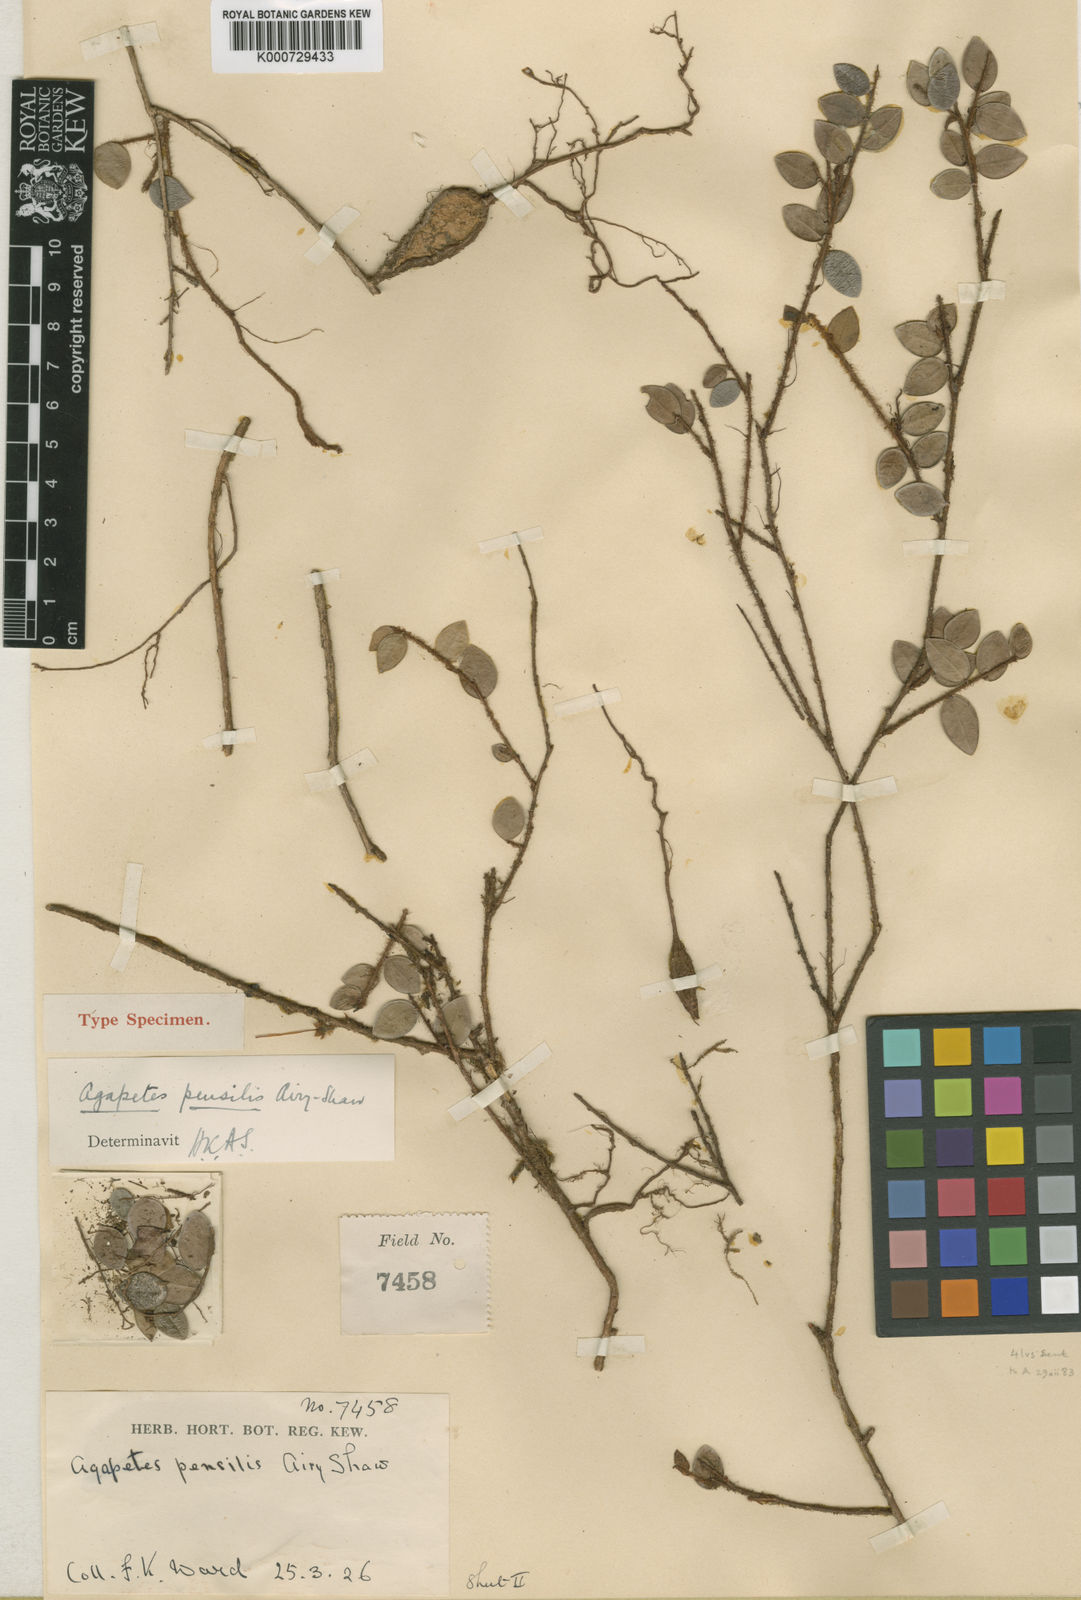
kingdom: Plantae
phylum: Tracheophyta
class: Magnoliopsida
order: Ericales
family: Ericaceae
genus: Agapetes
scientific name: Agapetes pensilis
